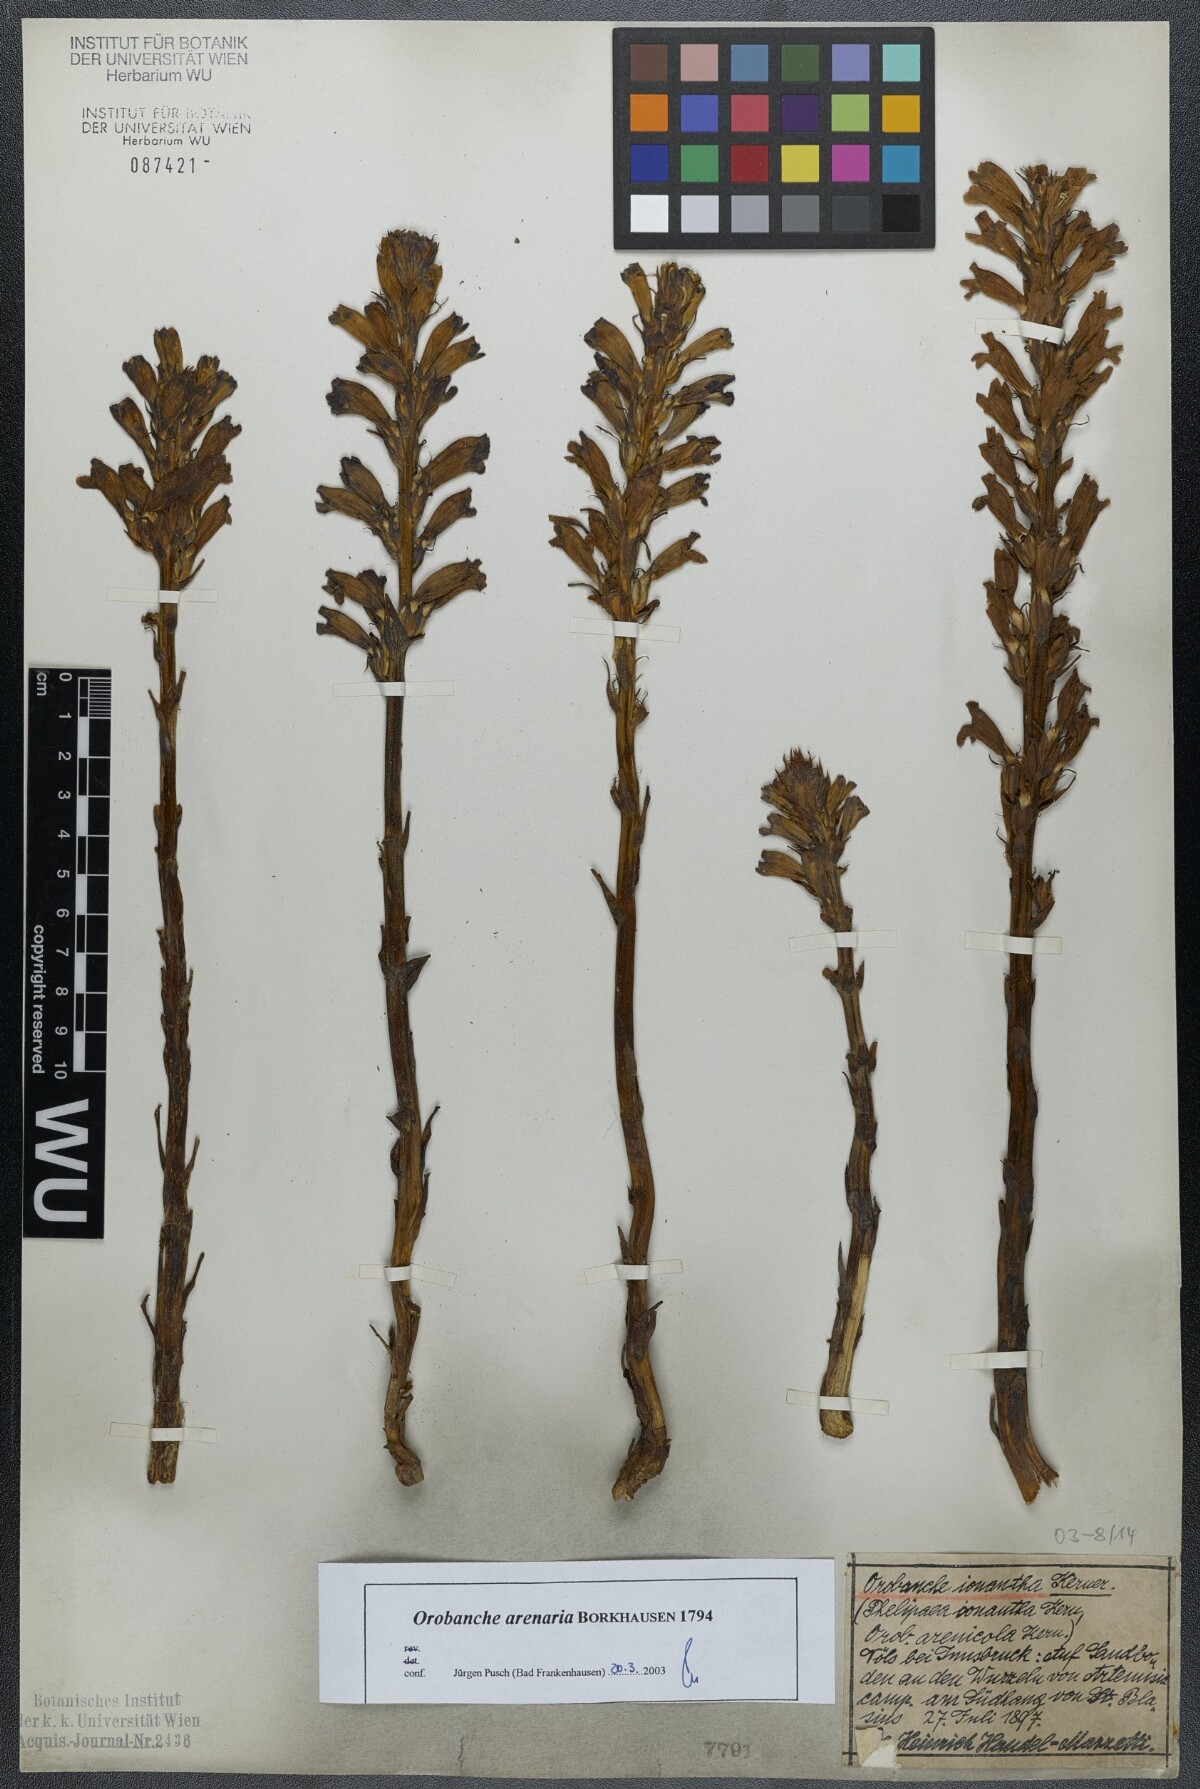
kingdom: Plantae
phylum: Tracheophyta
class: Magnoliopsida
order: Lamiales
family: Orobanchaceae
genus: Phelipanche
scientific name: Phelipanche arenaria
